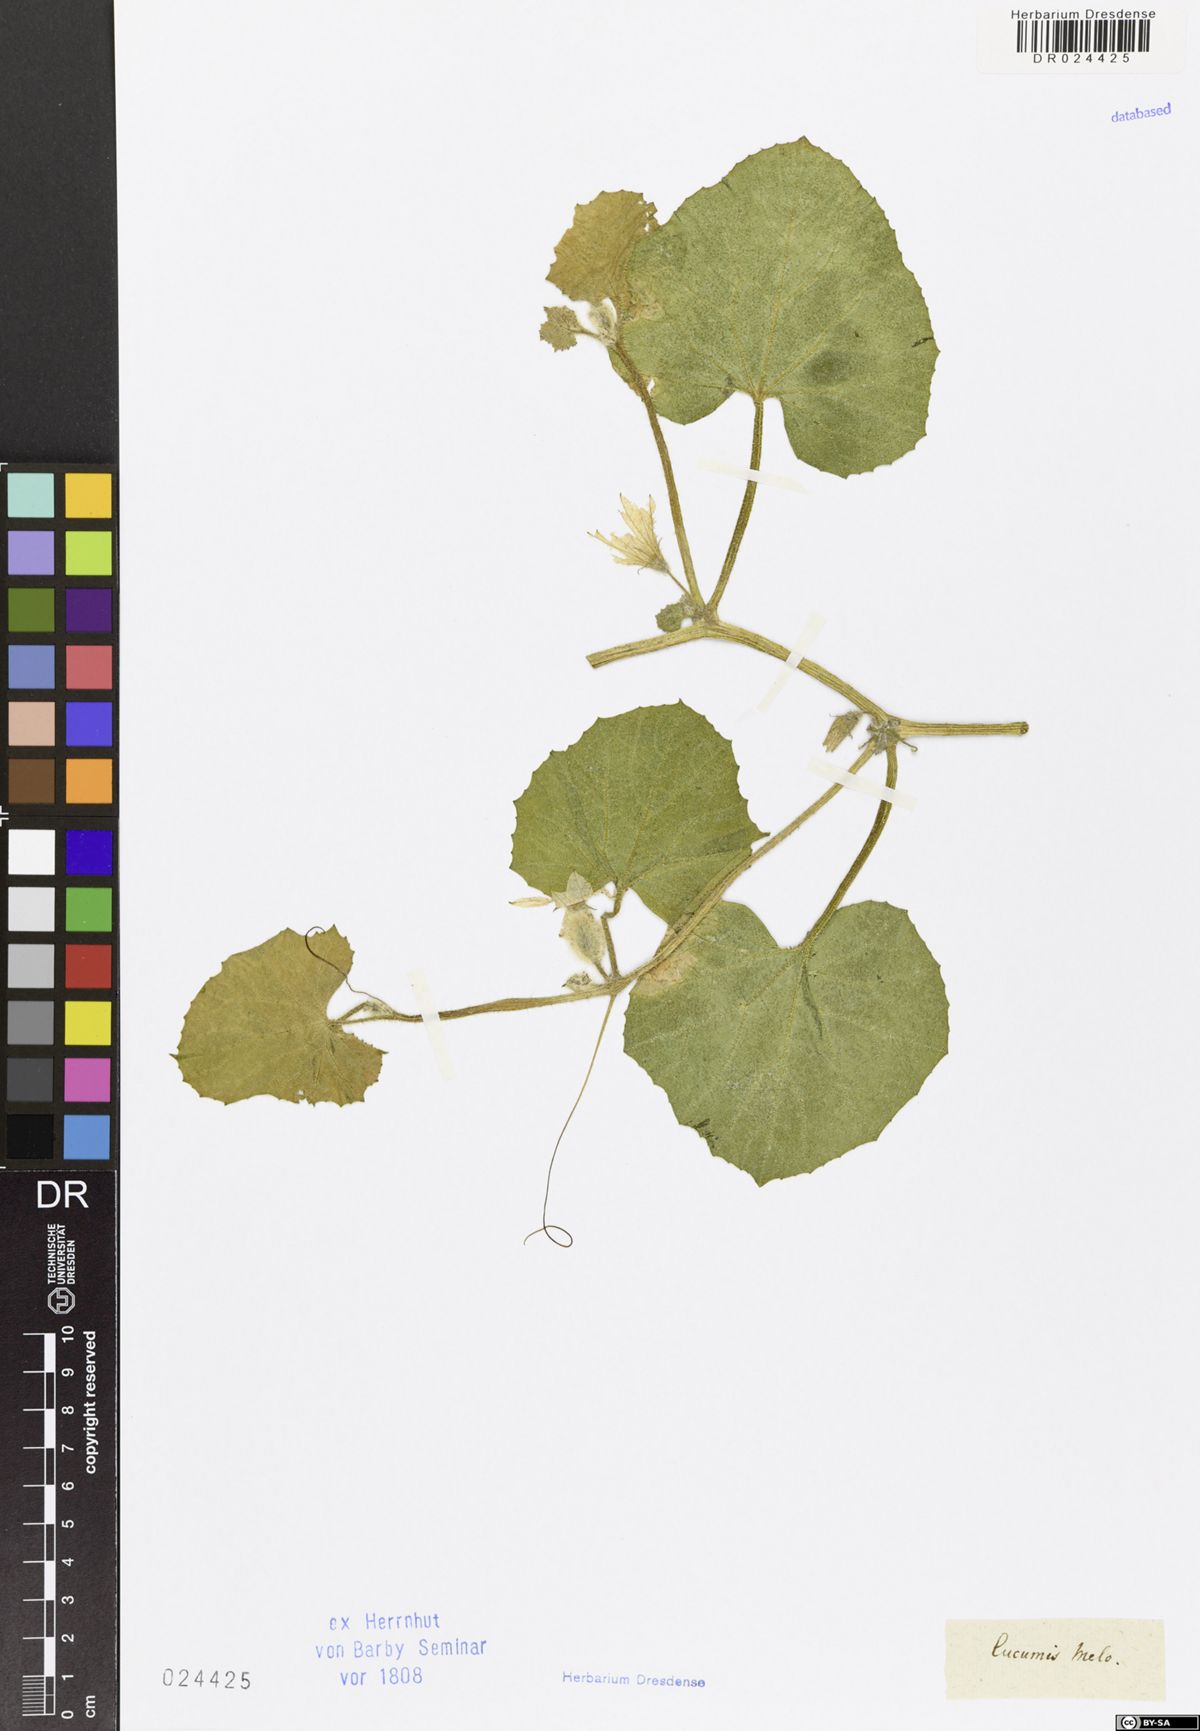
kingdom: Plantae
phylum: Tracheophyta
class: Magnoliopsida
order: Cucurbitales
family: Cucurbitaceae
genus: Cucumis
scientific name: Cucumis melo
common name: Melon
